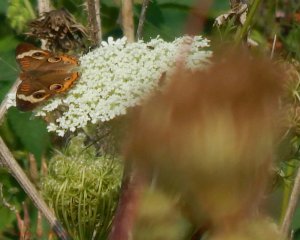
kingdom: Animalia
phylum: Arthropoda
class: Insecta
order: Lepidoptera
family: Nymphalidae
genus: Junonia
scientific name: Junonia coenia
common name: Common Buckeye
